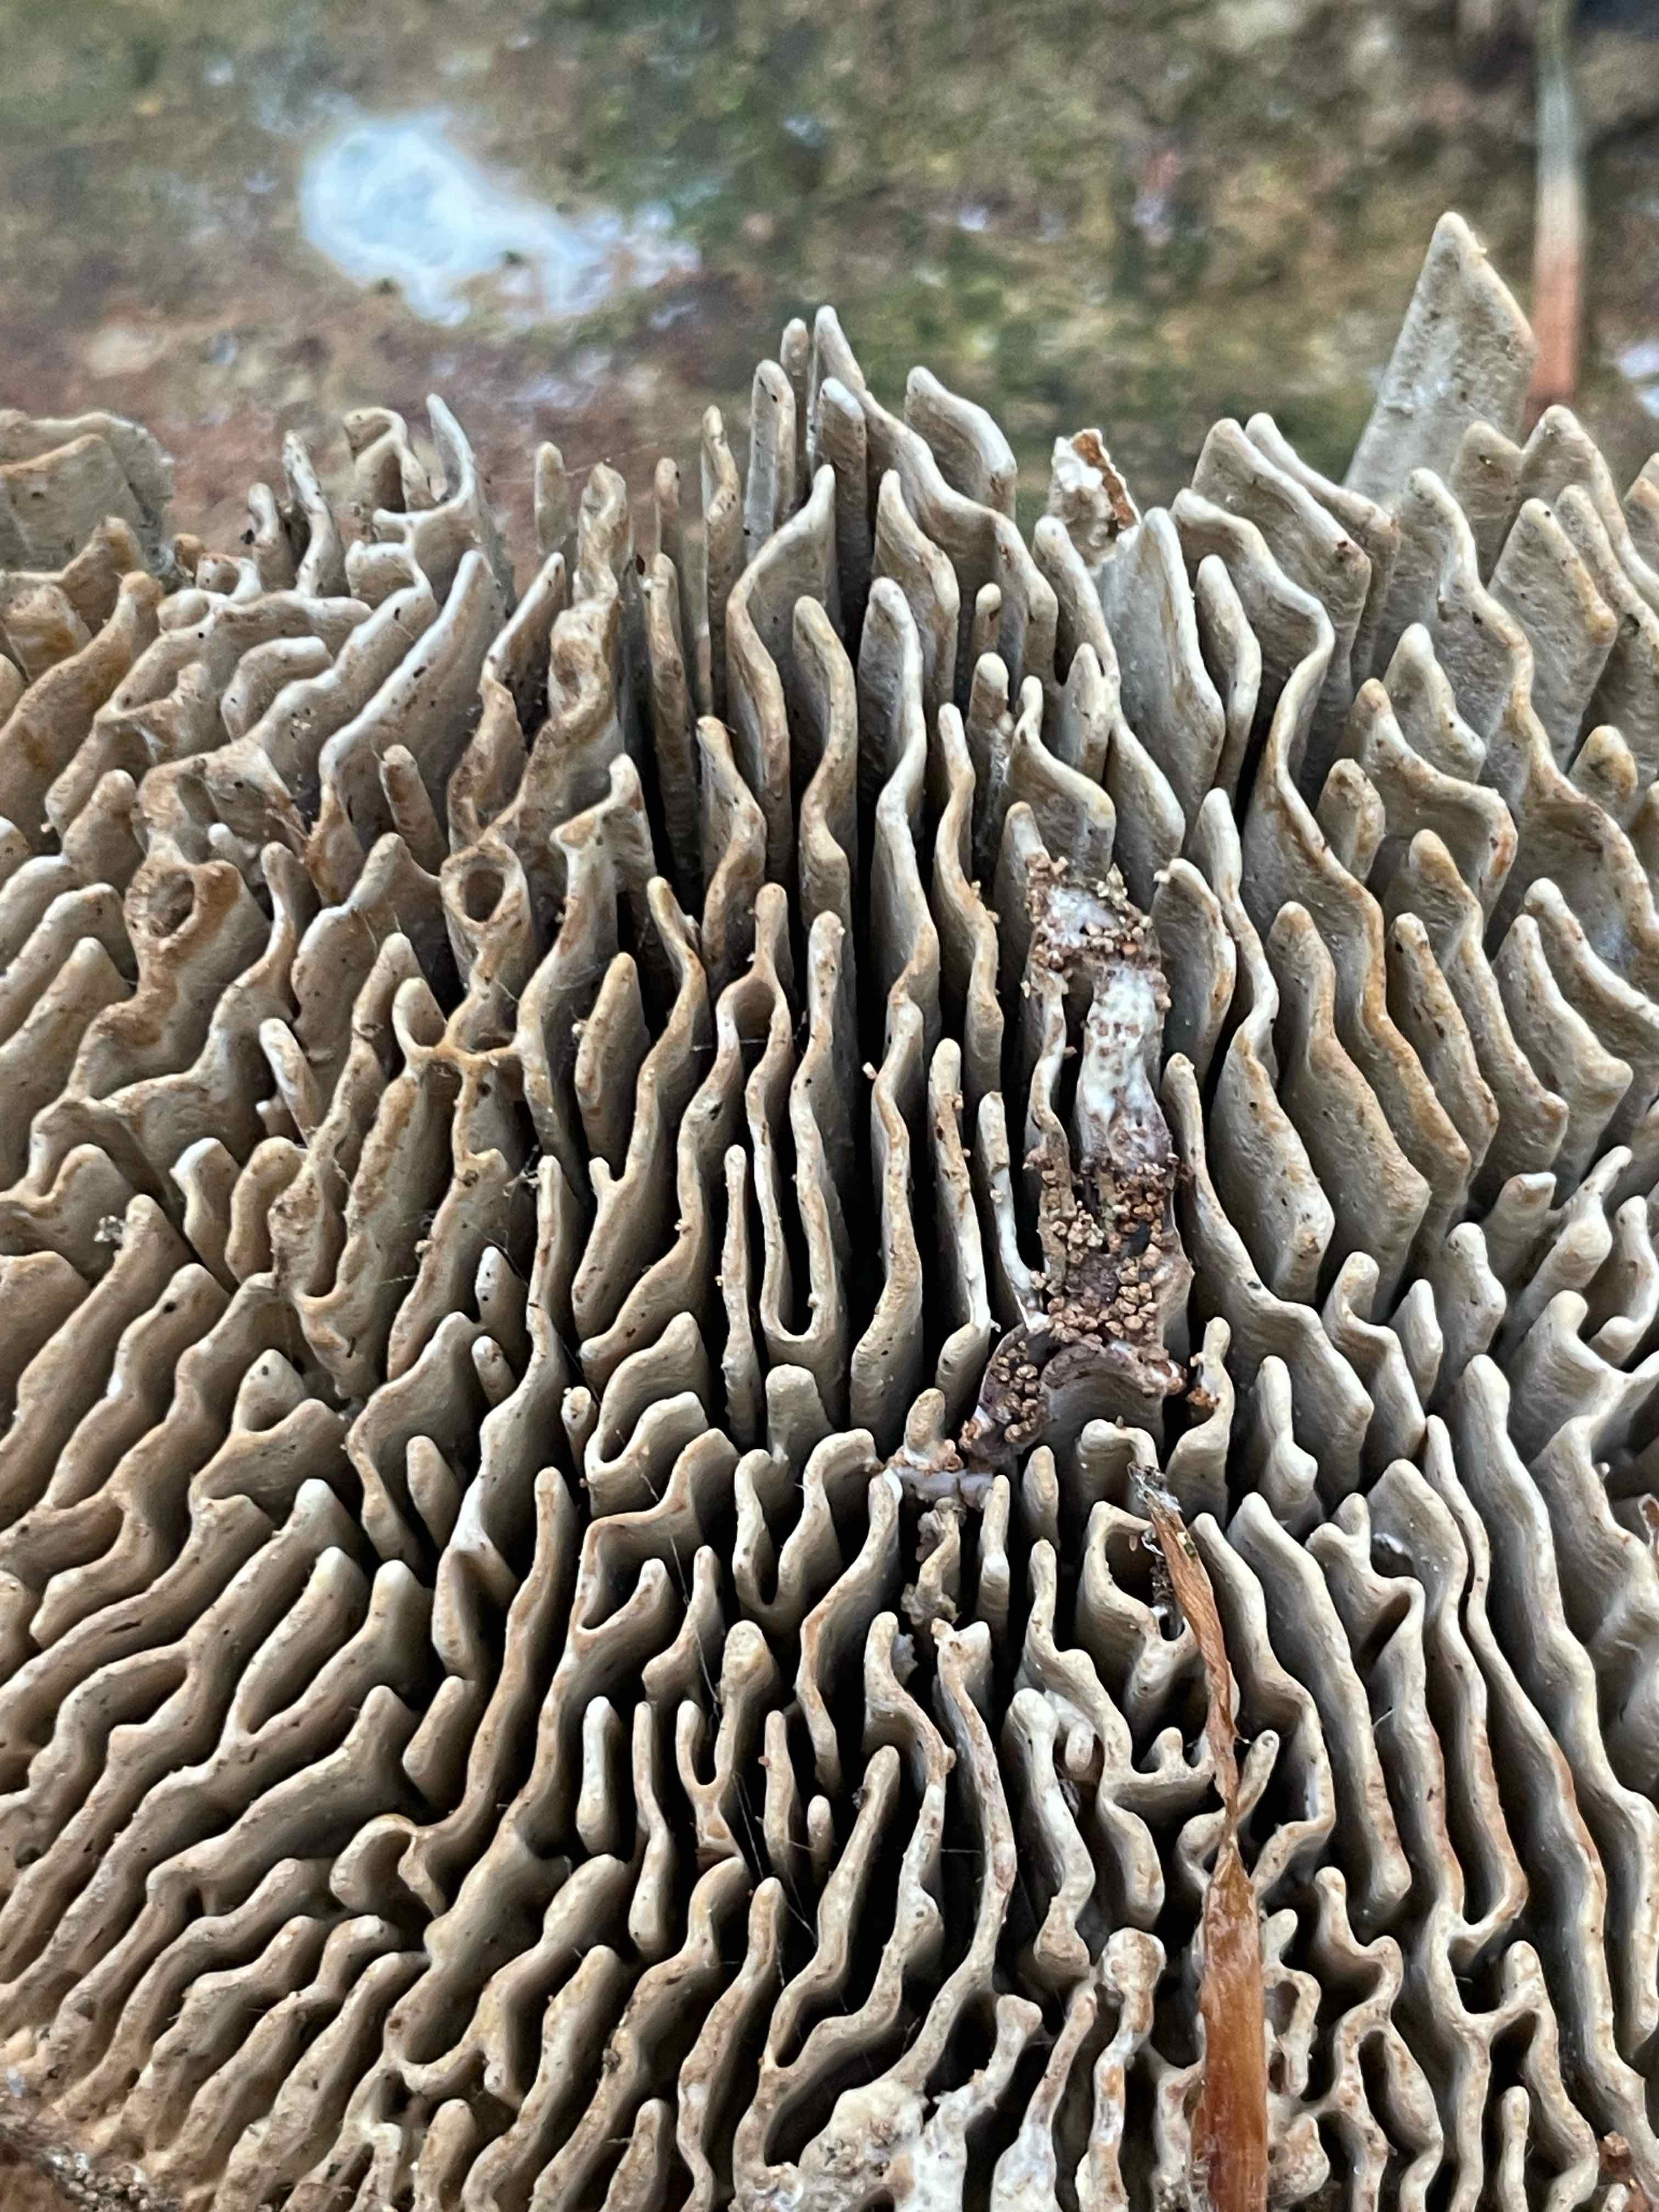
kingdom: Fungi
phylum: Basidiomycota
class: Agaricomycetes
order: Polyporales
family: Fomitopsidaceae
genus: Daedalea
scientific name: Daedalea quercina
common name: ege-labyrintsvamp
